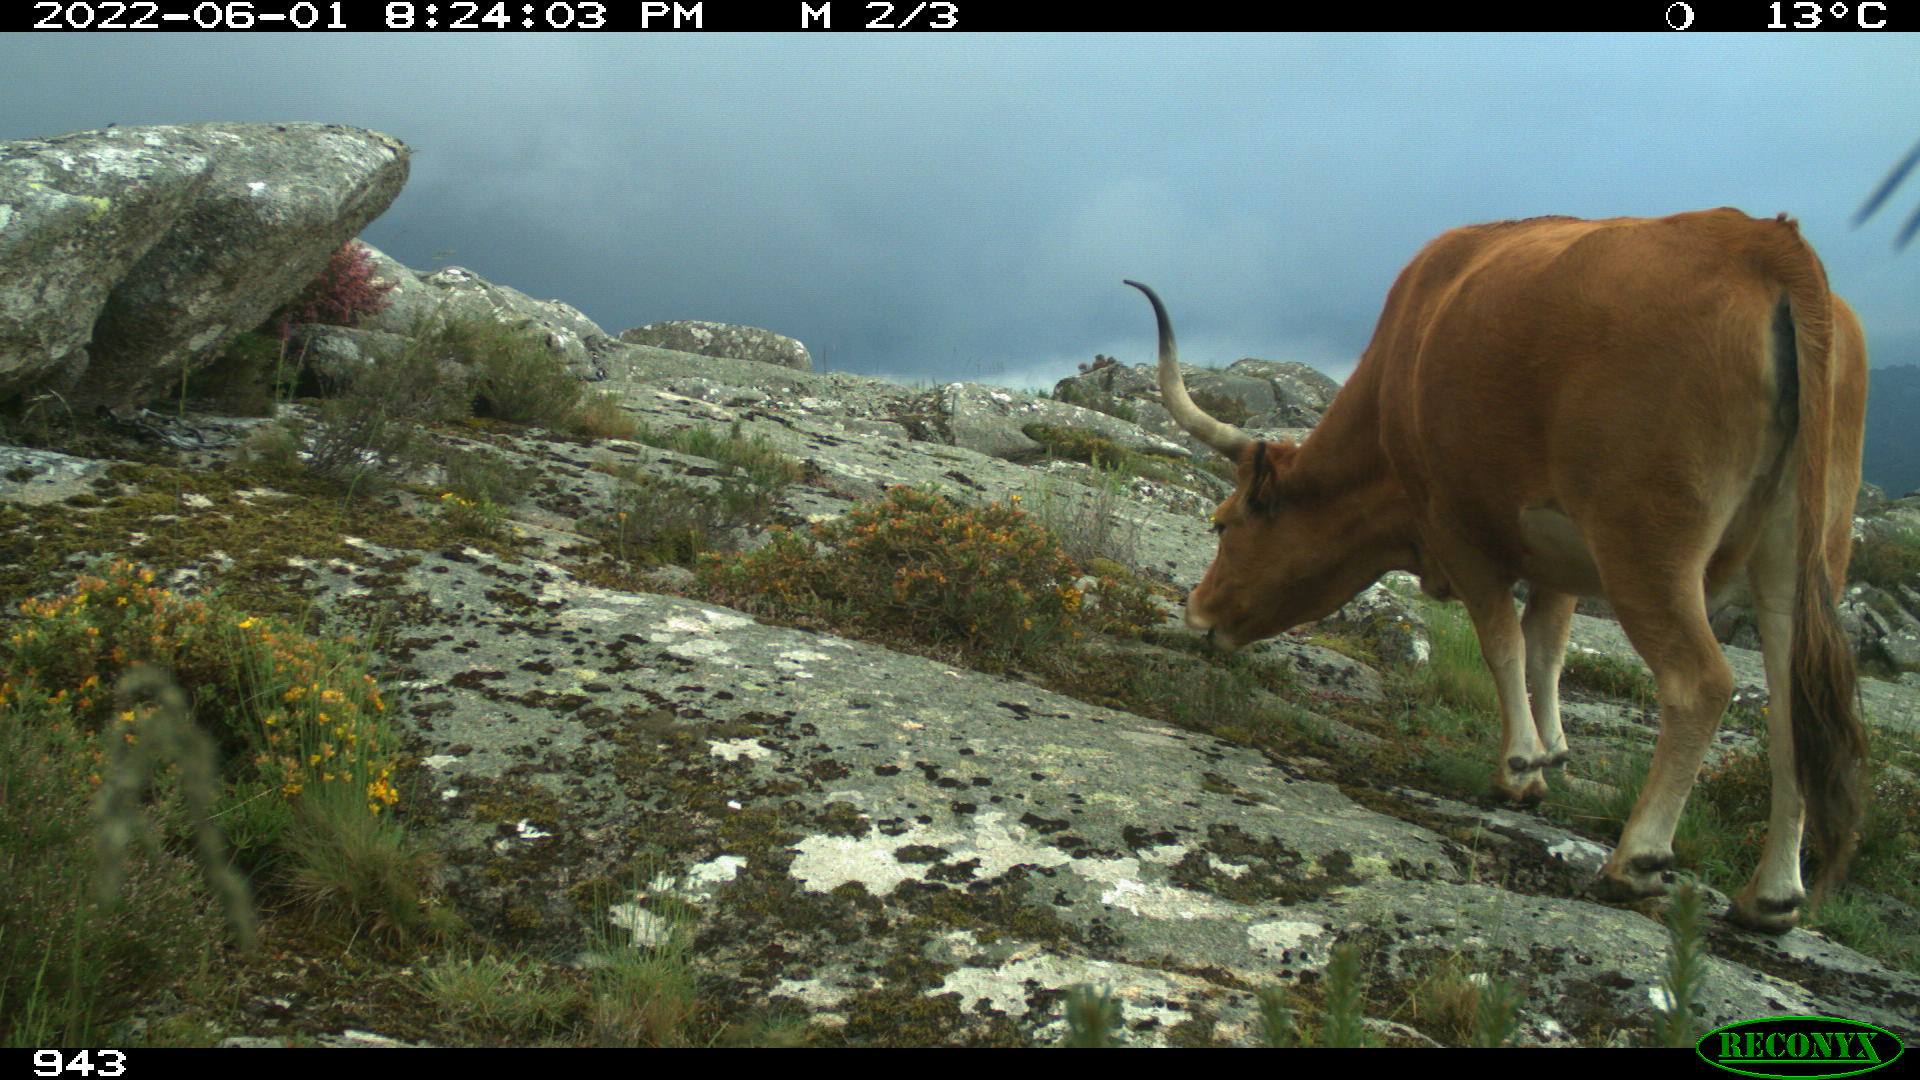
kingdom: Animalia
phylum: Chordata
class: Mammalia
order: Artiodactyla
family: Bovidae
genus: Bos
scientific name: Bos taurus
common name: Domesticated cattle
